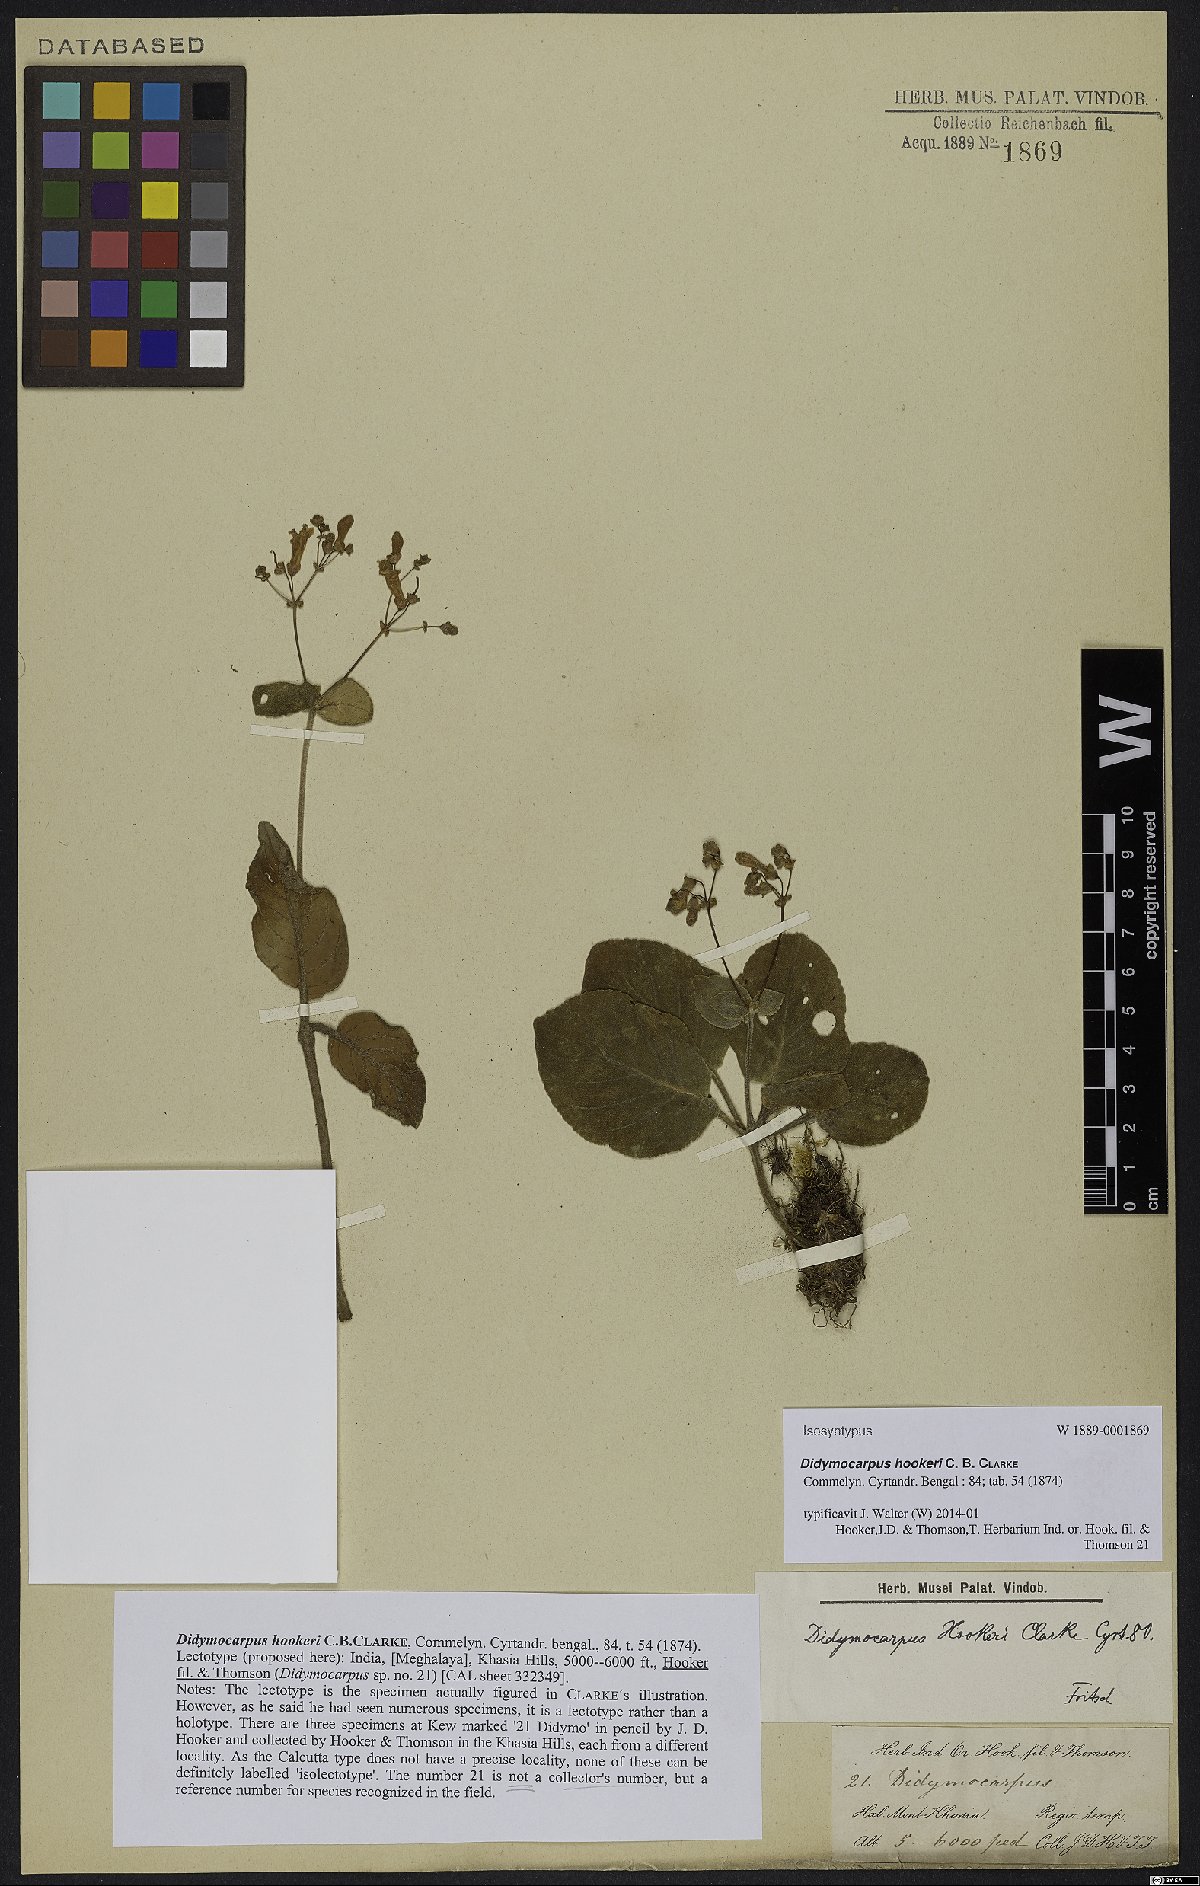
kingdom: Plantae
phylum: Tracheophyta
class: Magnoliopsida
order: Lamiales
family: Gesneriaceae
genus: Didymocarpus
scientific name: Didymocarpus hookeri
